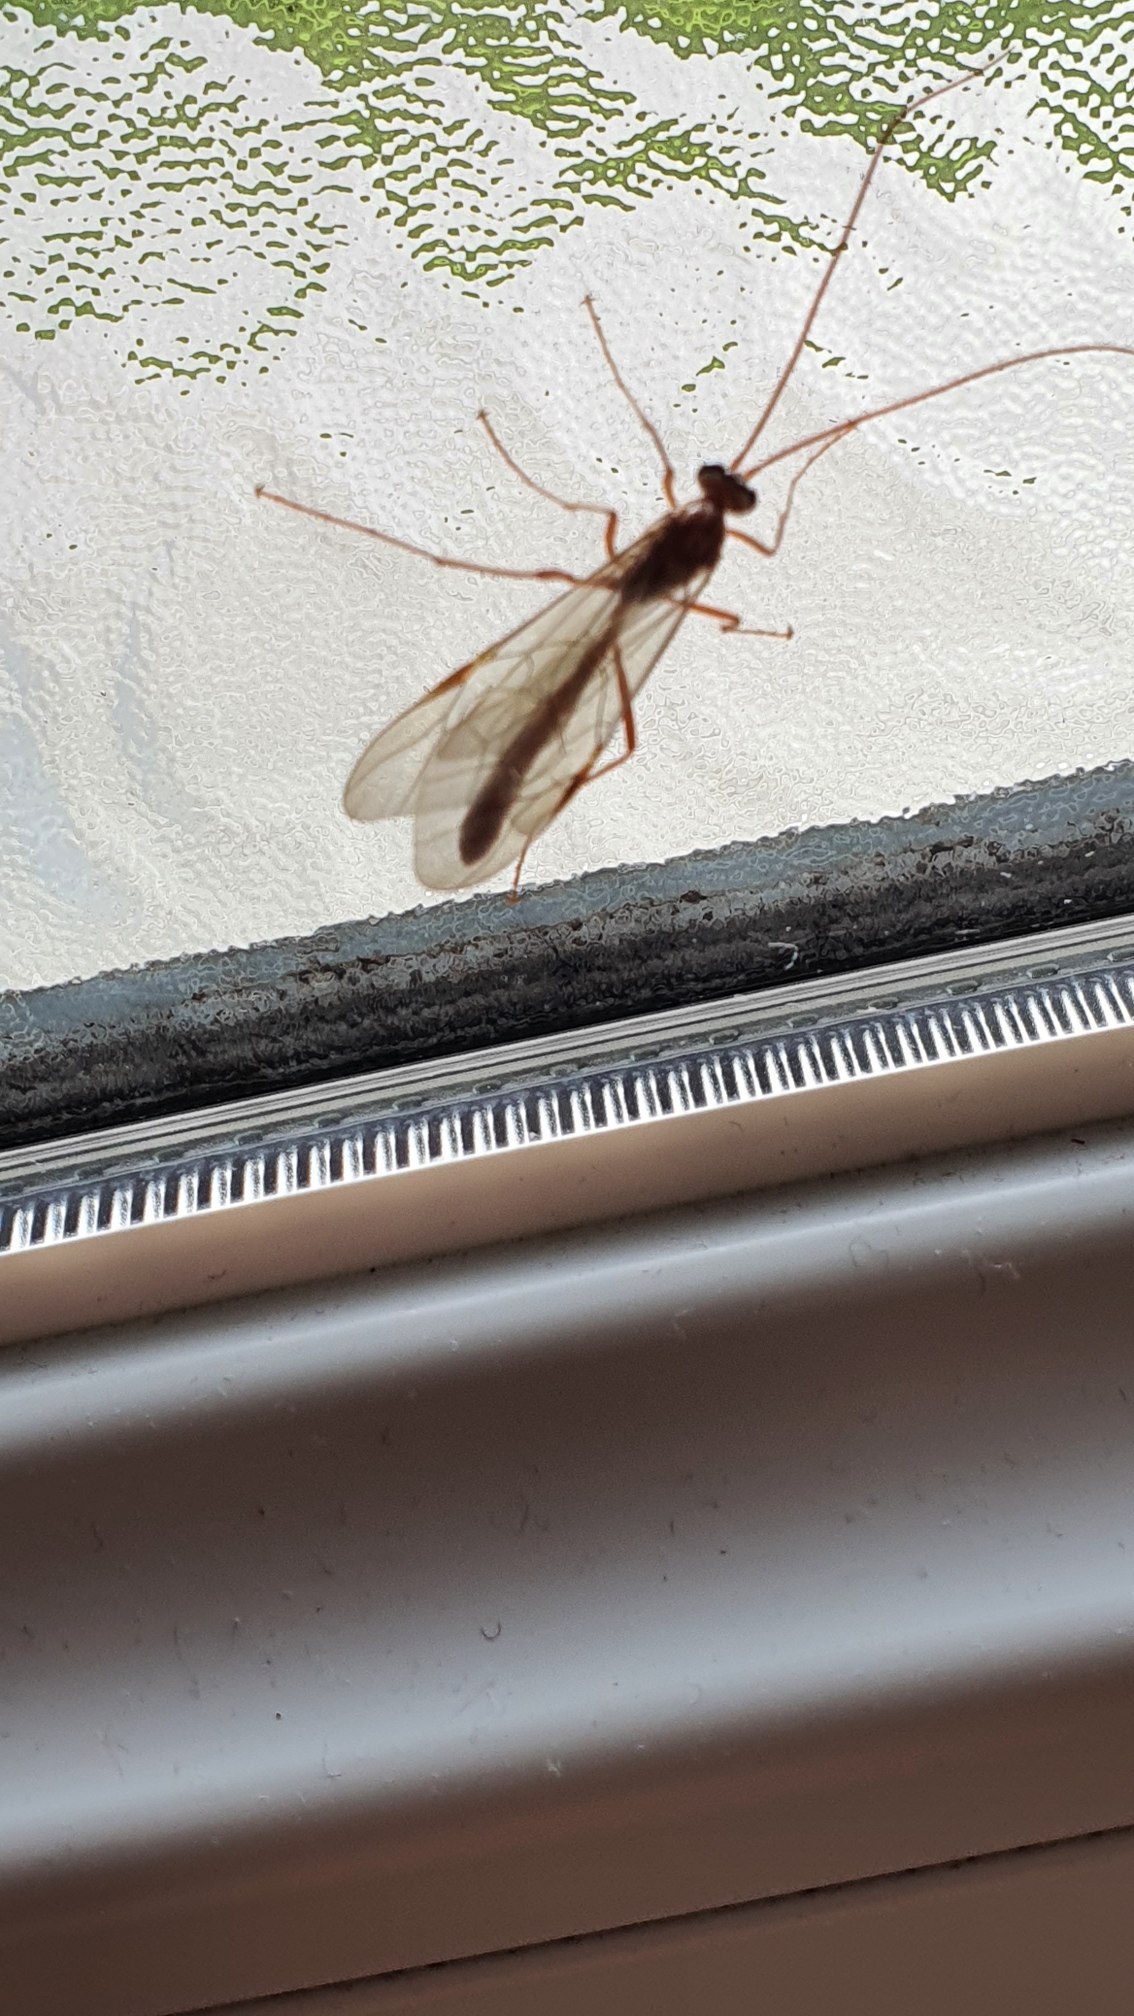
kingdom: Animalia
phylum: Arthropoda
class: Insecta
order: Hymenoptera
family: Ichneumonidae
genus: Ophion
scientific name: Ophion obscuratus
